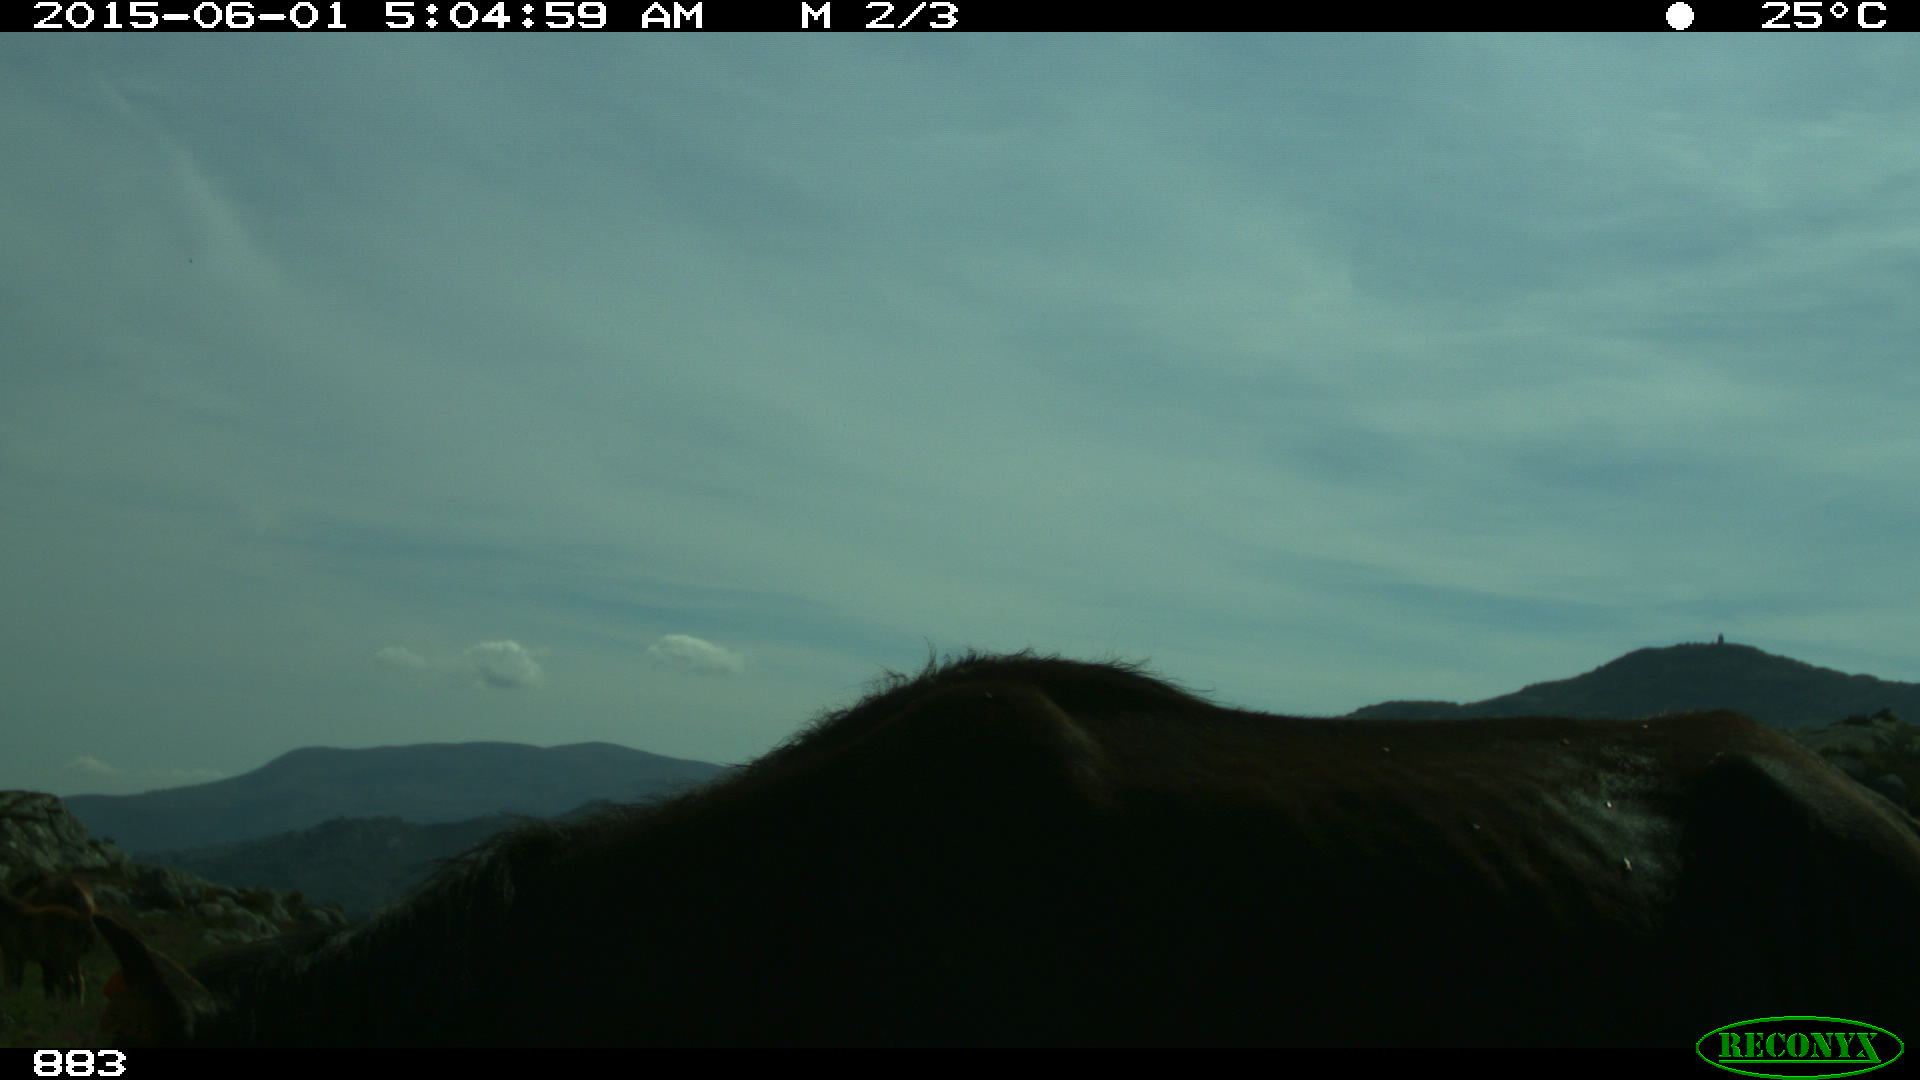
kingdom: Animalia
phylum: Chordata
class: Mammalia
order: Perissodactyla
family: Equidae
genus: Equus
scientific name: Equus caballus
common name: Horse
